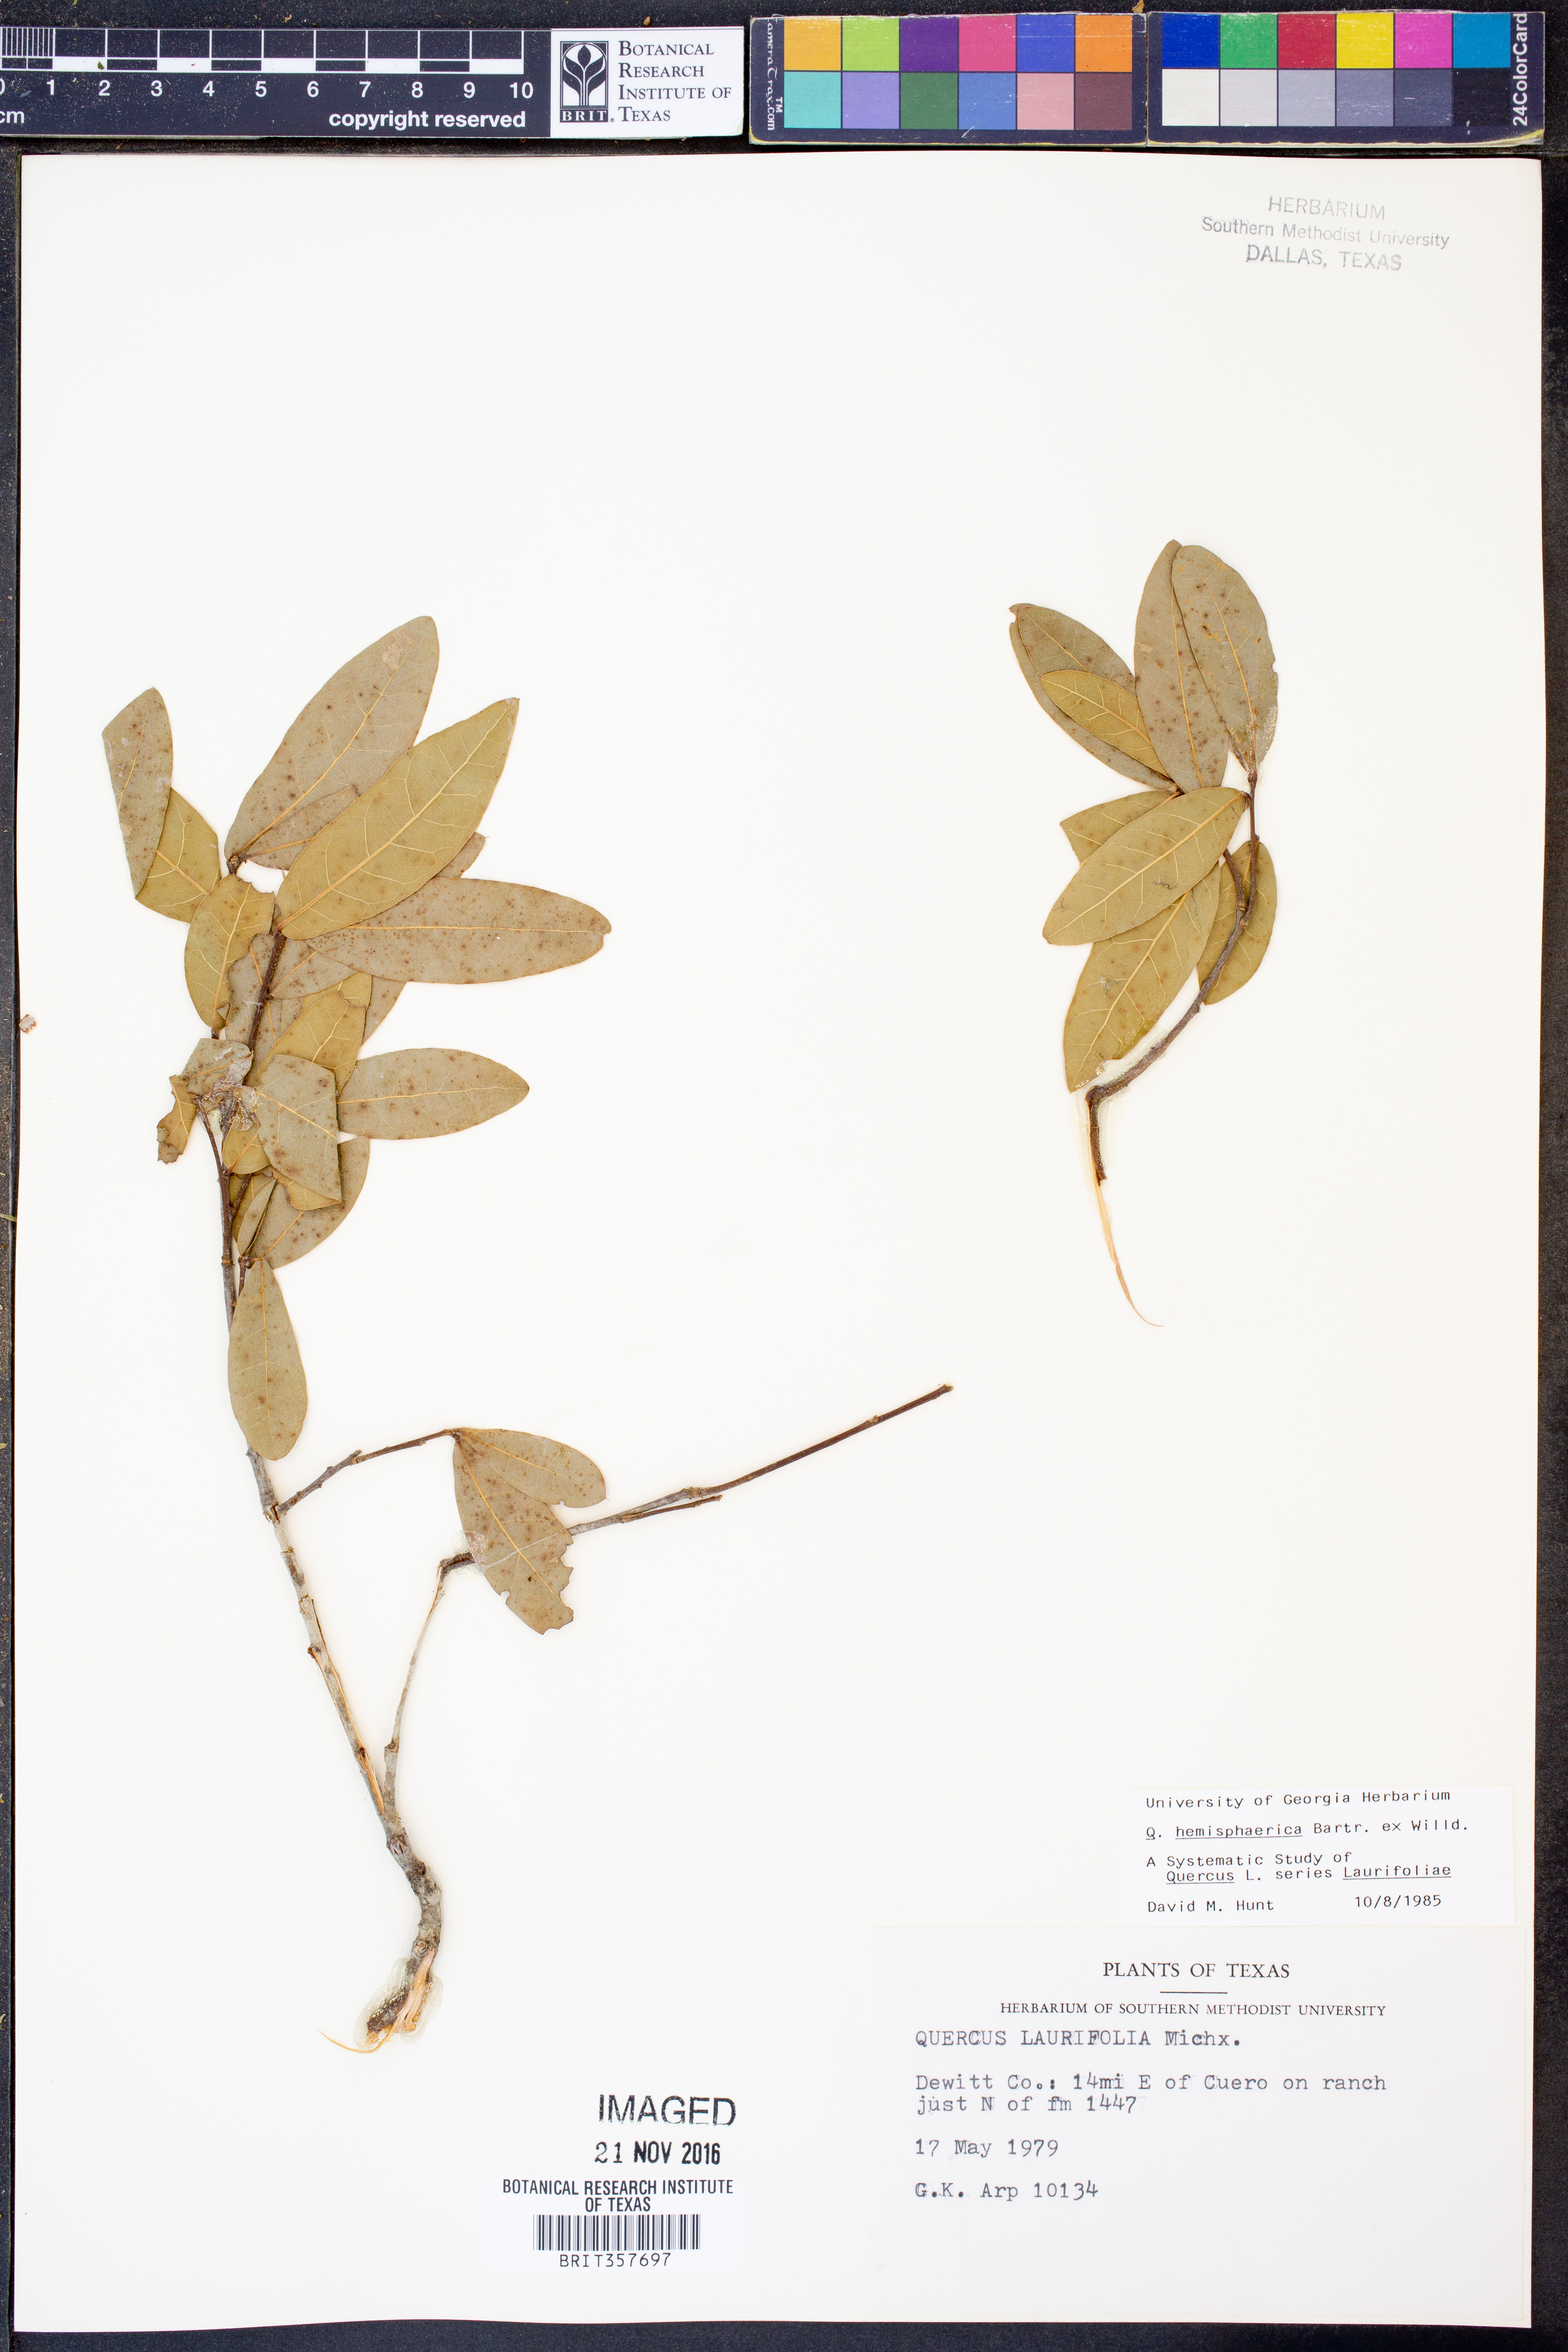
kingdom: Plantae
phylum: Tracheophyta
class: Magnoliopsida
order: Fagales
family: Fagaceae
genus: Quercus
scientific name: Quercus hemisphaerica
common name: Darlington oak
